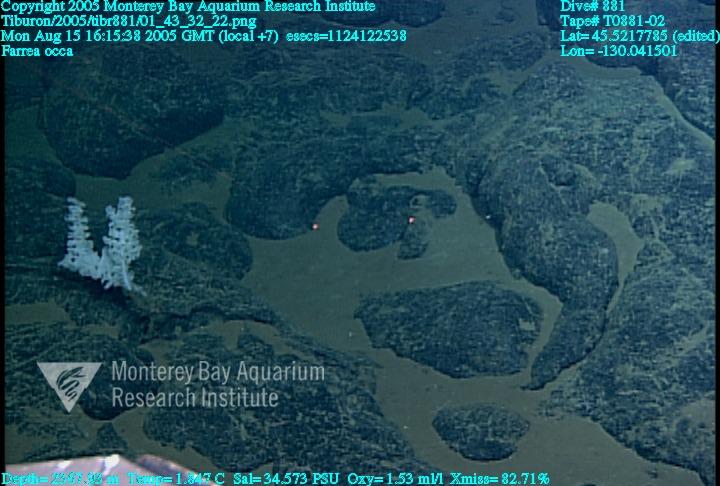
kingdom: Animalia
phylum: Porifera
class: Hexactinellida
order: Sceptrulophora
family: Farreidae
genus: Farrea
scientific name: Farrea occa
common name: Reversed glass sponge
